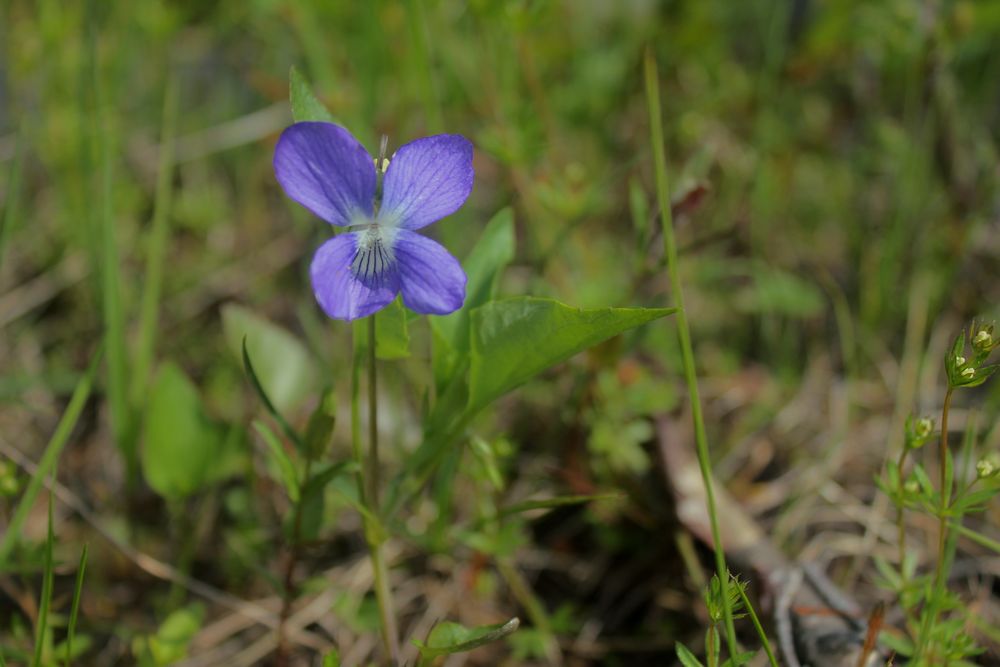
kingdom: Plantae
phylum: Tracheophyta
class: Magnoliopsida
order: Malpighiales
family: Violaceae
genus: Viola
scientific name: Viola canina
